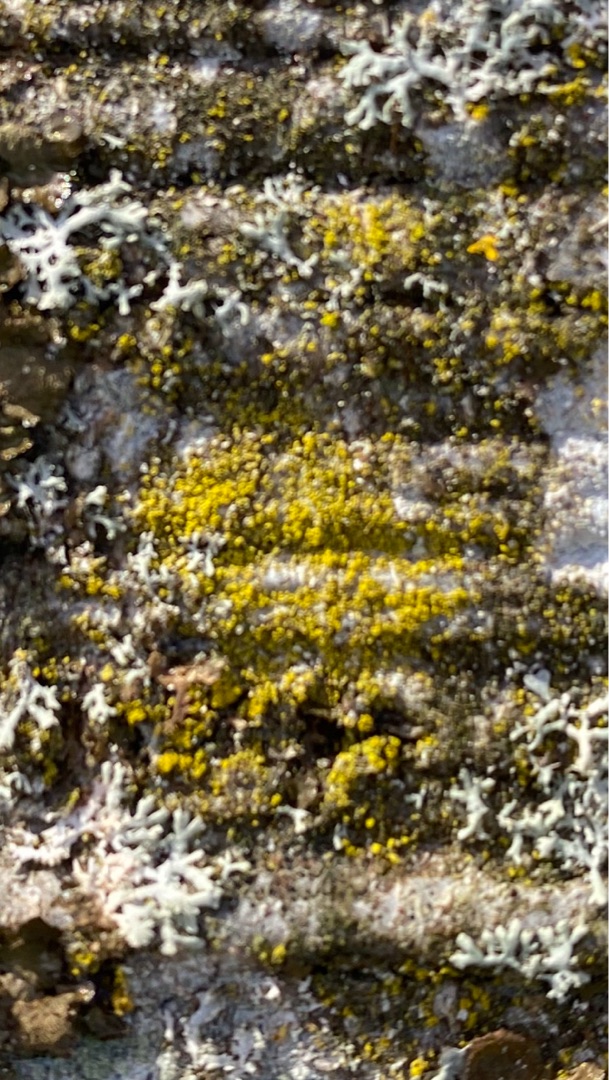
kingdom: Fungi
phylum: Ascomycota
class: Candelariomycetes
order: Candelariales
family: Candelariaceae
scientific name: Candelariaceae
